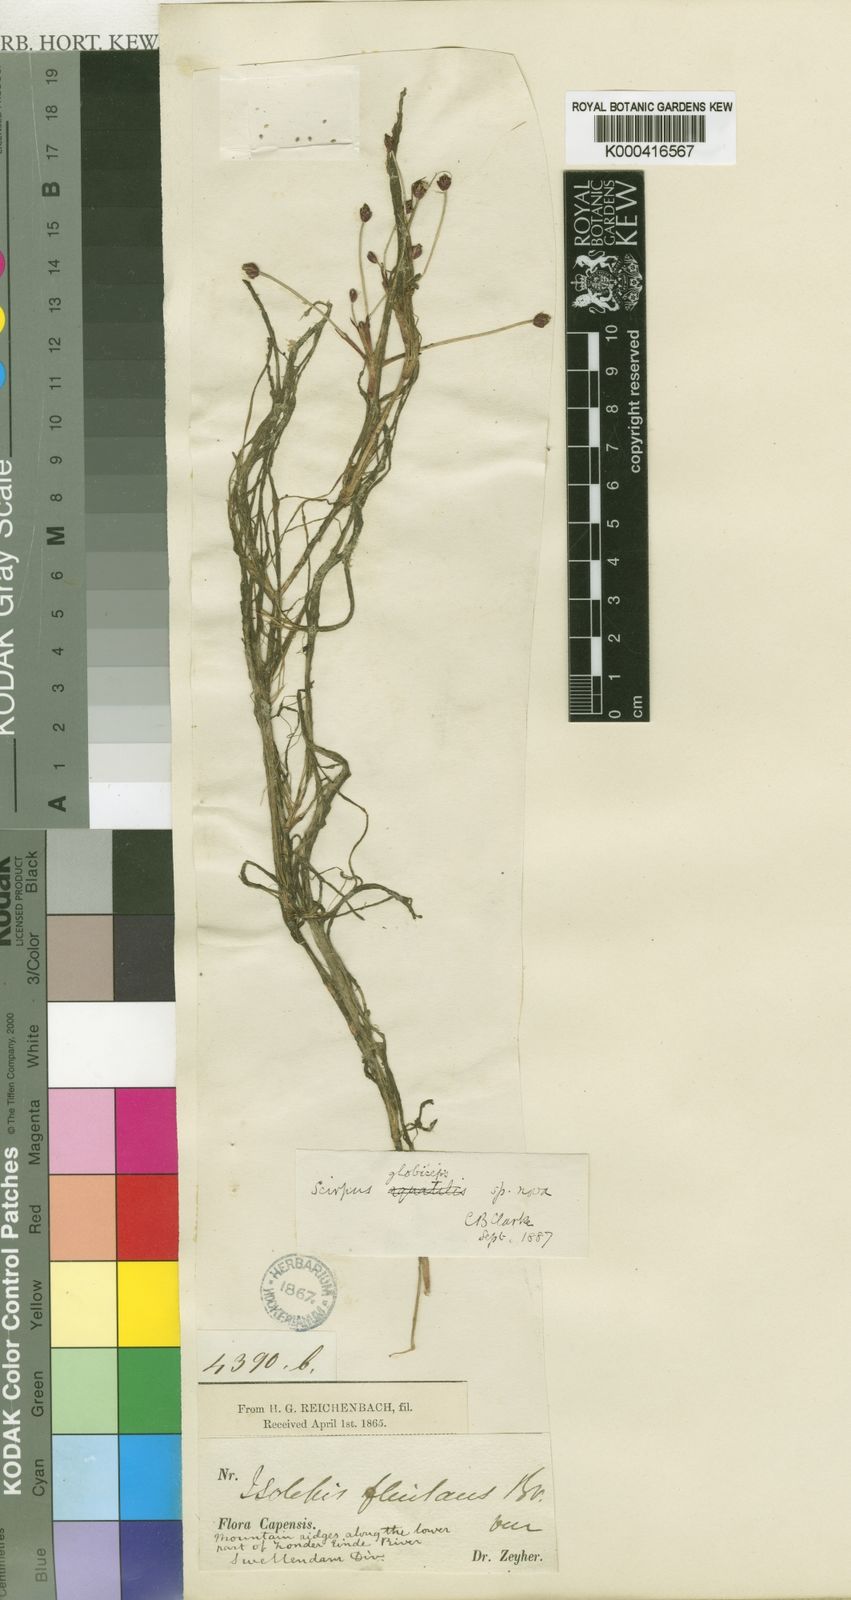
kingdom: Plantae
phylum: Tracheophyta
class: Liliopsida
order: Poales
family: Cyperaceae
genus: Isolepis
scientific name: Isolepis rubicunda
